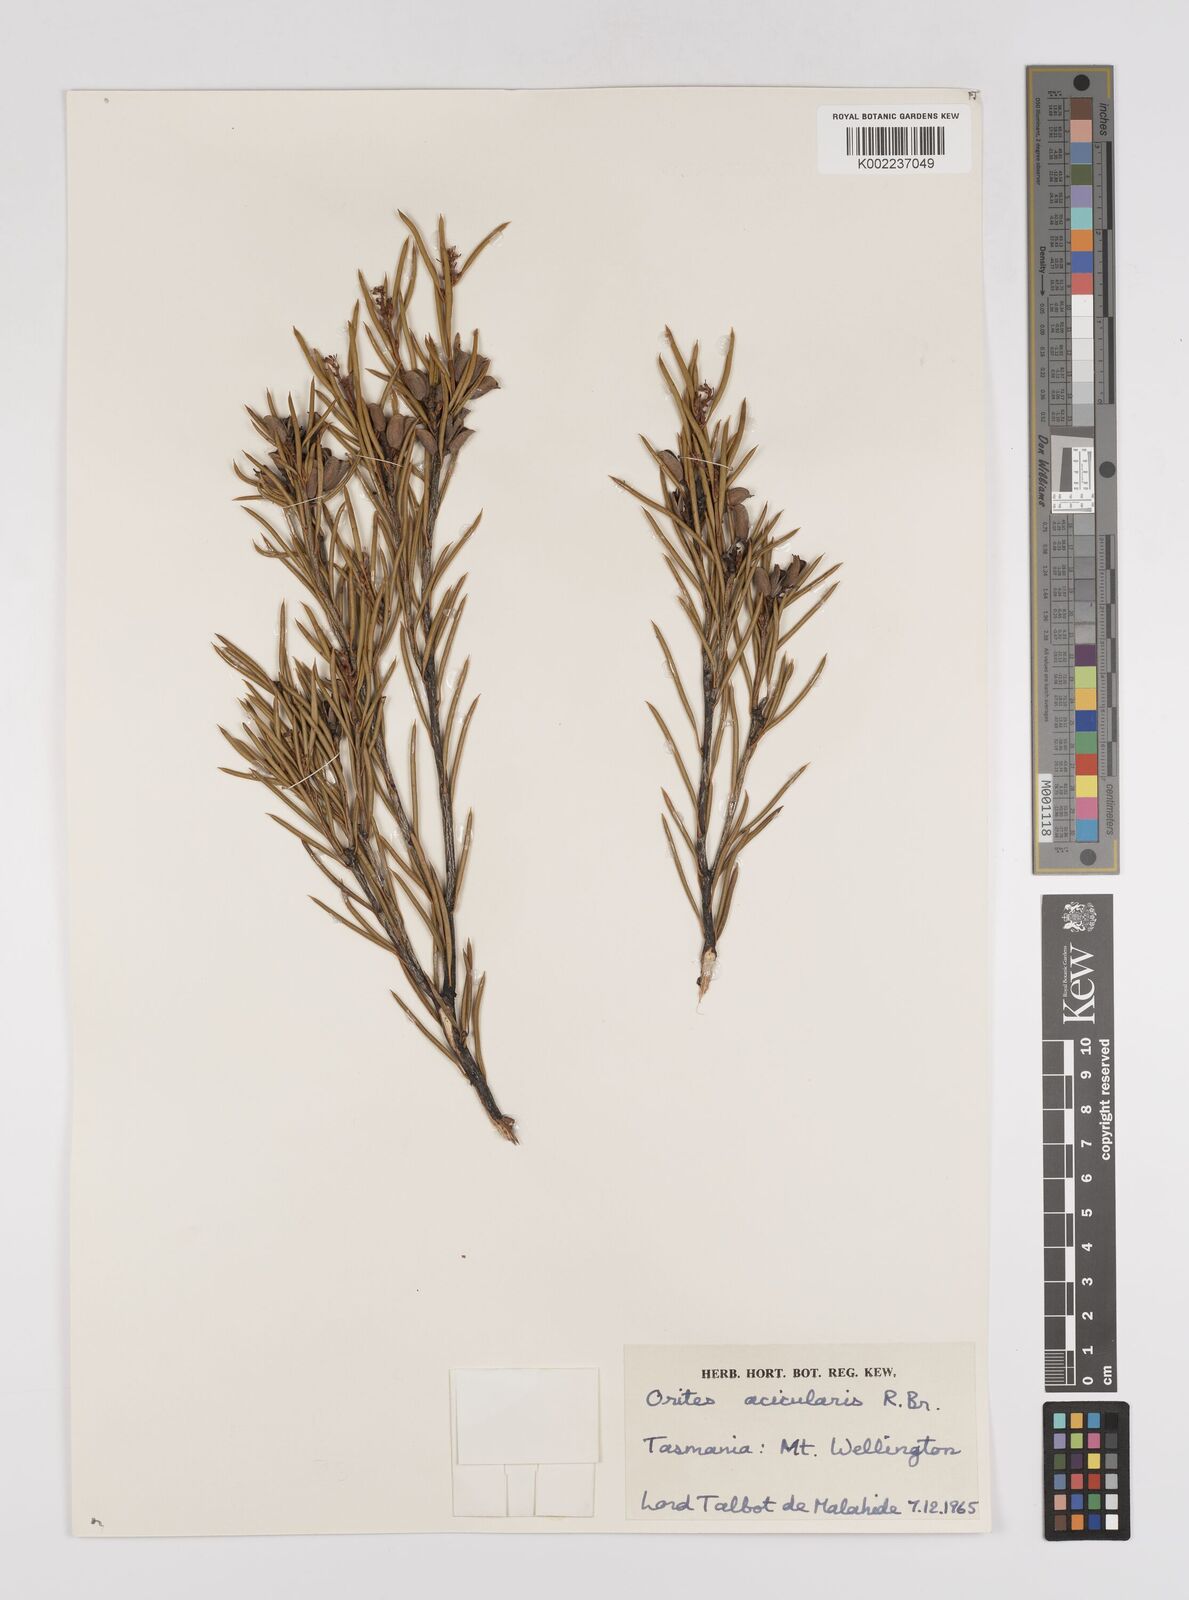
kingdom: Plantae
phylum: Tracheophyta
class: Magnoliopsida
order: Proteales
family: Proteaceae
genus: Orites
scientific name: Orites acicularis
